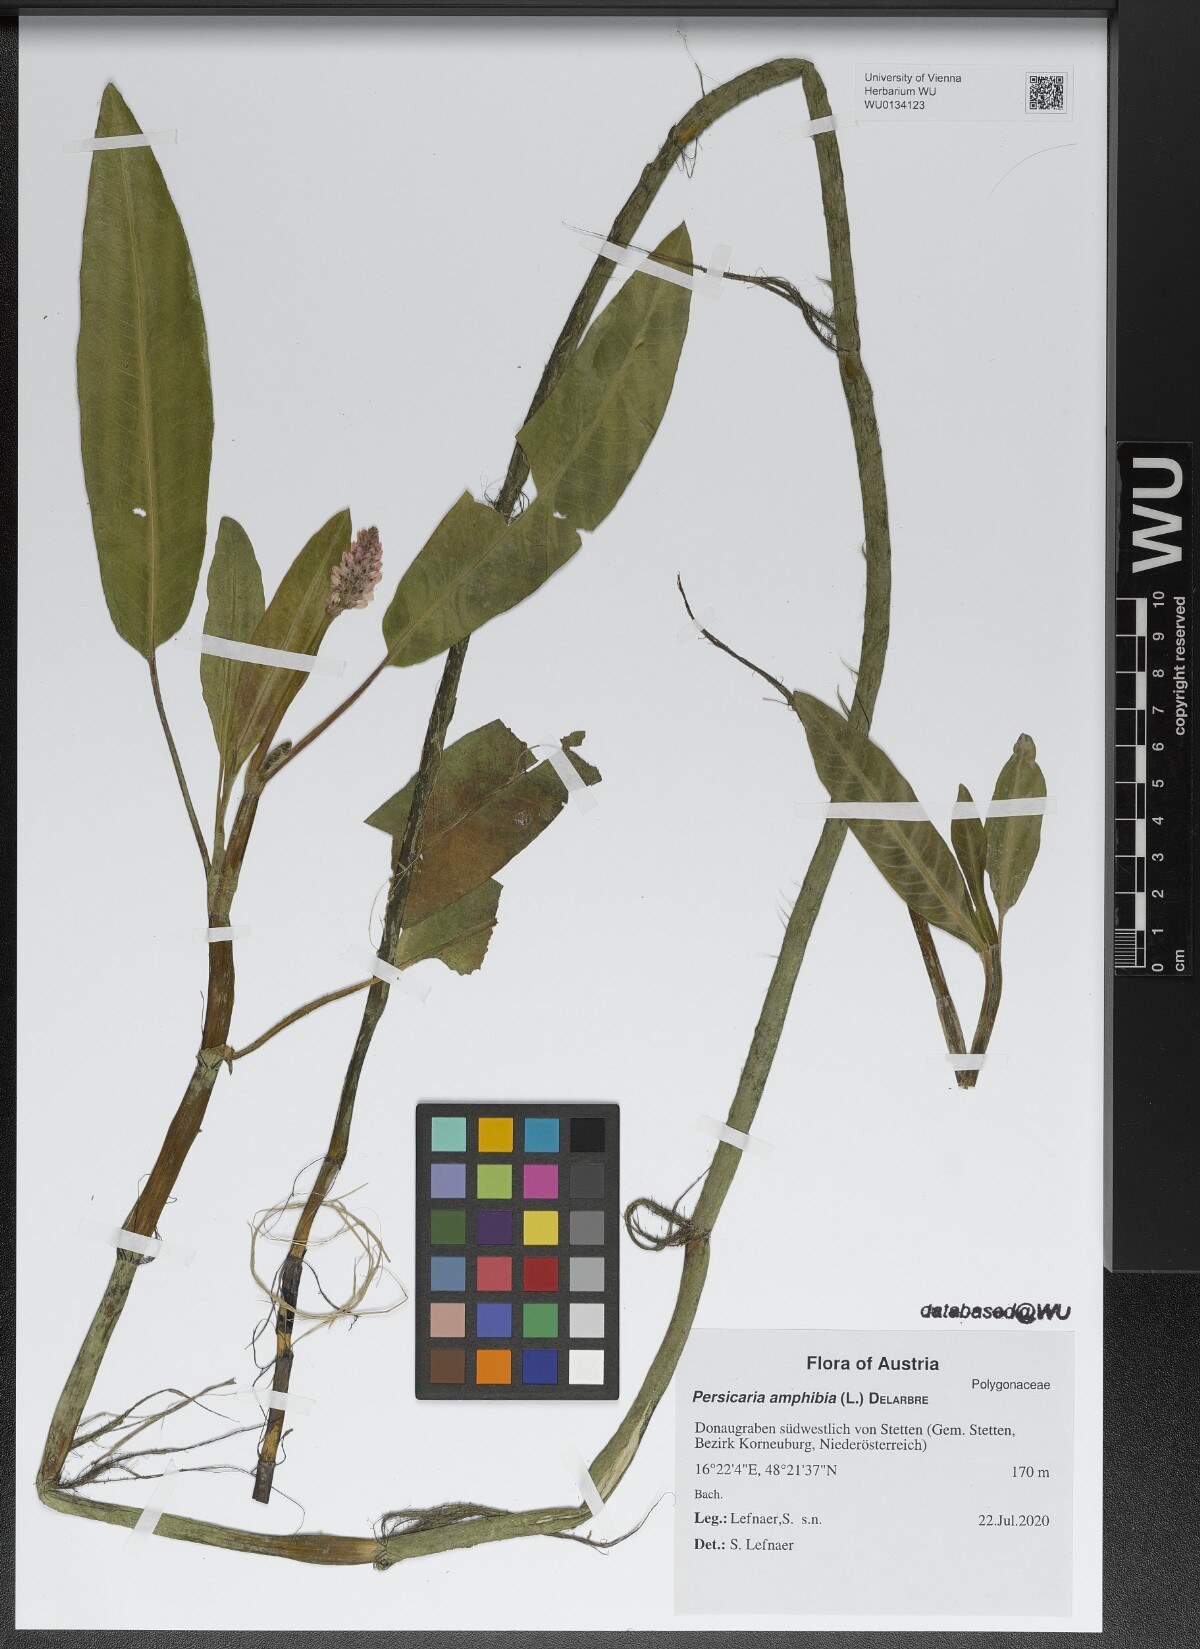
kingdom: Plantae
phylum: Tracheophyta
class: Magnoliopsida
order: Caryophyllales
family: Polygonaceae
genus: Persicaria
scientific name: Persicaria amphibia
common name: Amphibious bistort
